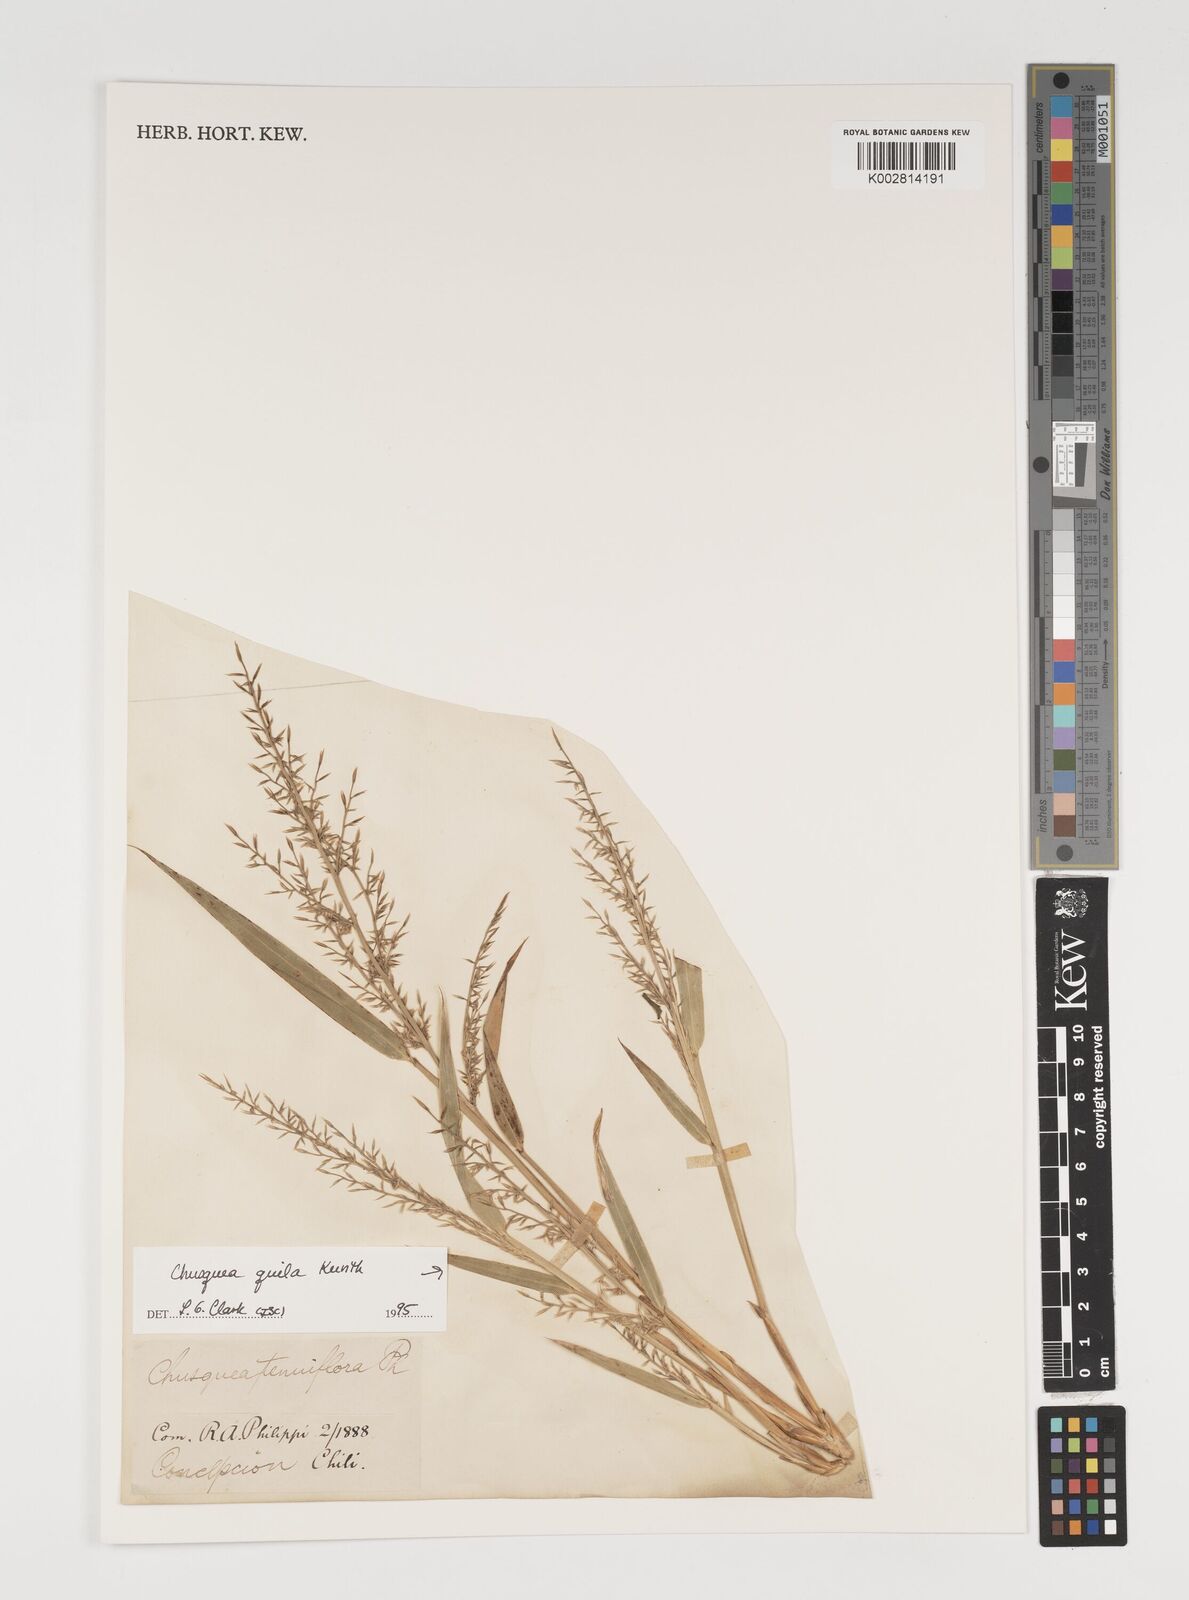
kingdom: Plantae
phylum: Tracheophyta
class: Liliopsida
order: Poales
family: Poaceae
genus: Chusquea
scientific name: Chusquea quila
